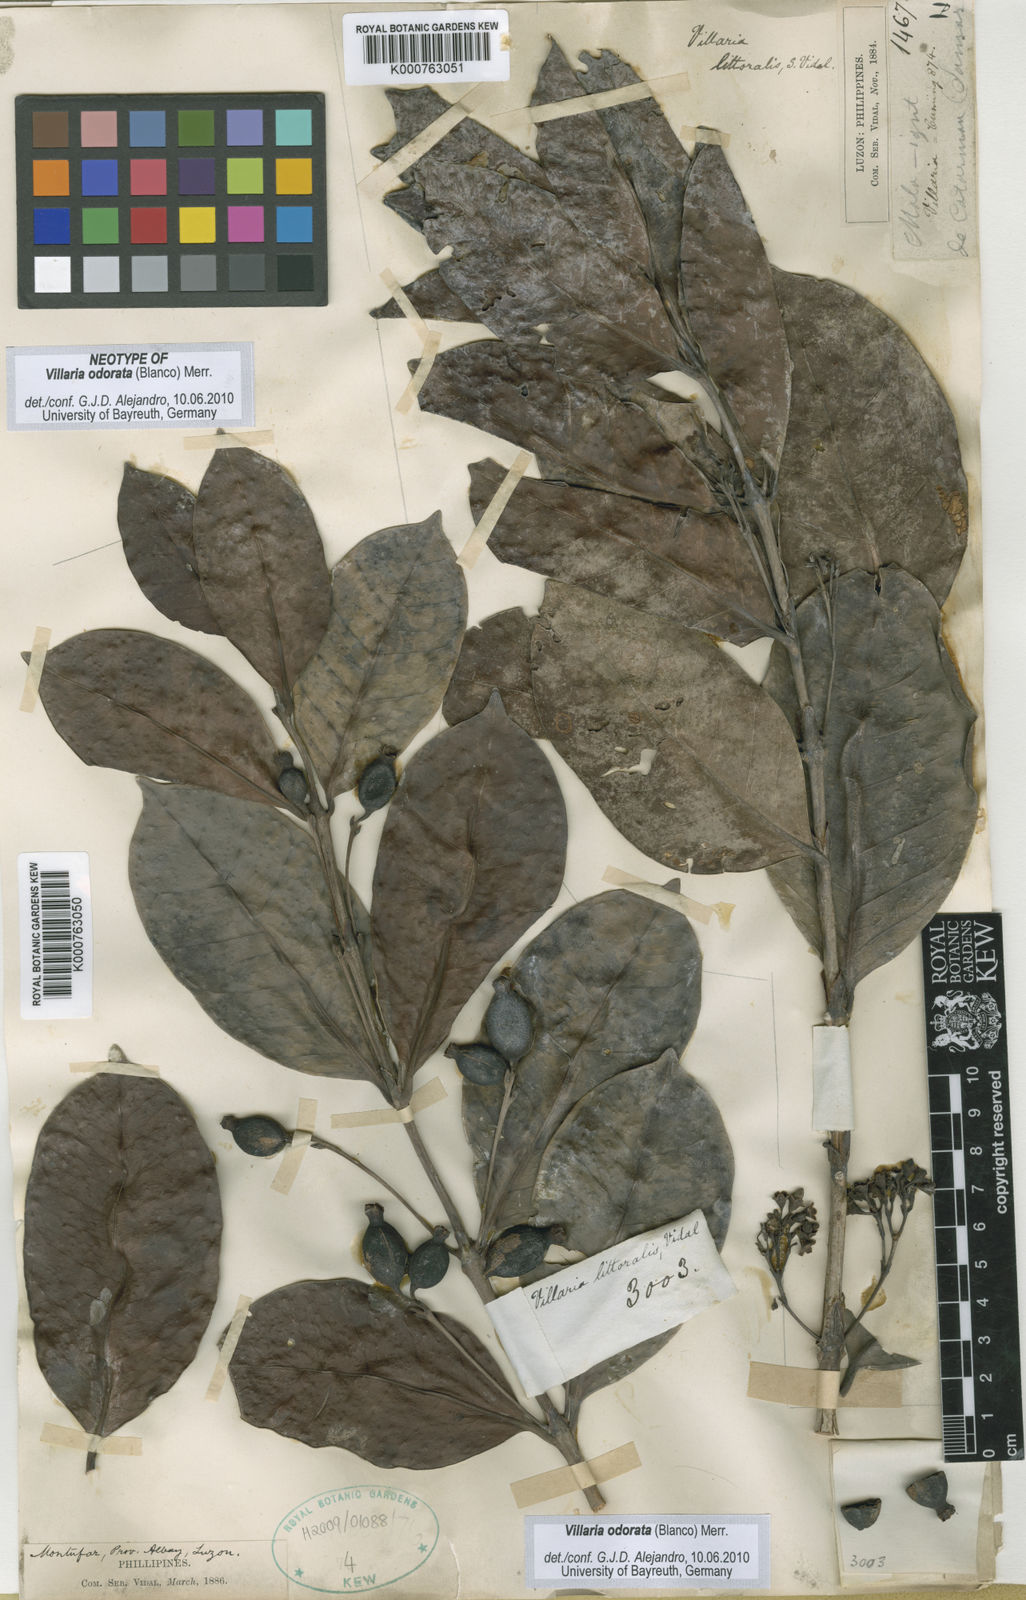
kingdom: Plantae
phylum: Tracheophyta
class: Magnoliopsida
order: Gentianales
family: Rubiaceae
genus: Villaria
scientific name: Villaria odorata
